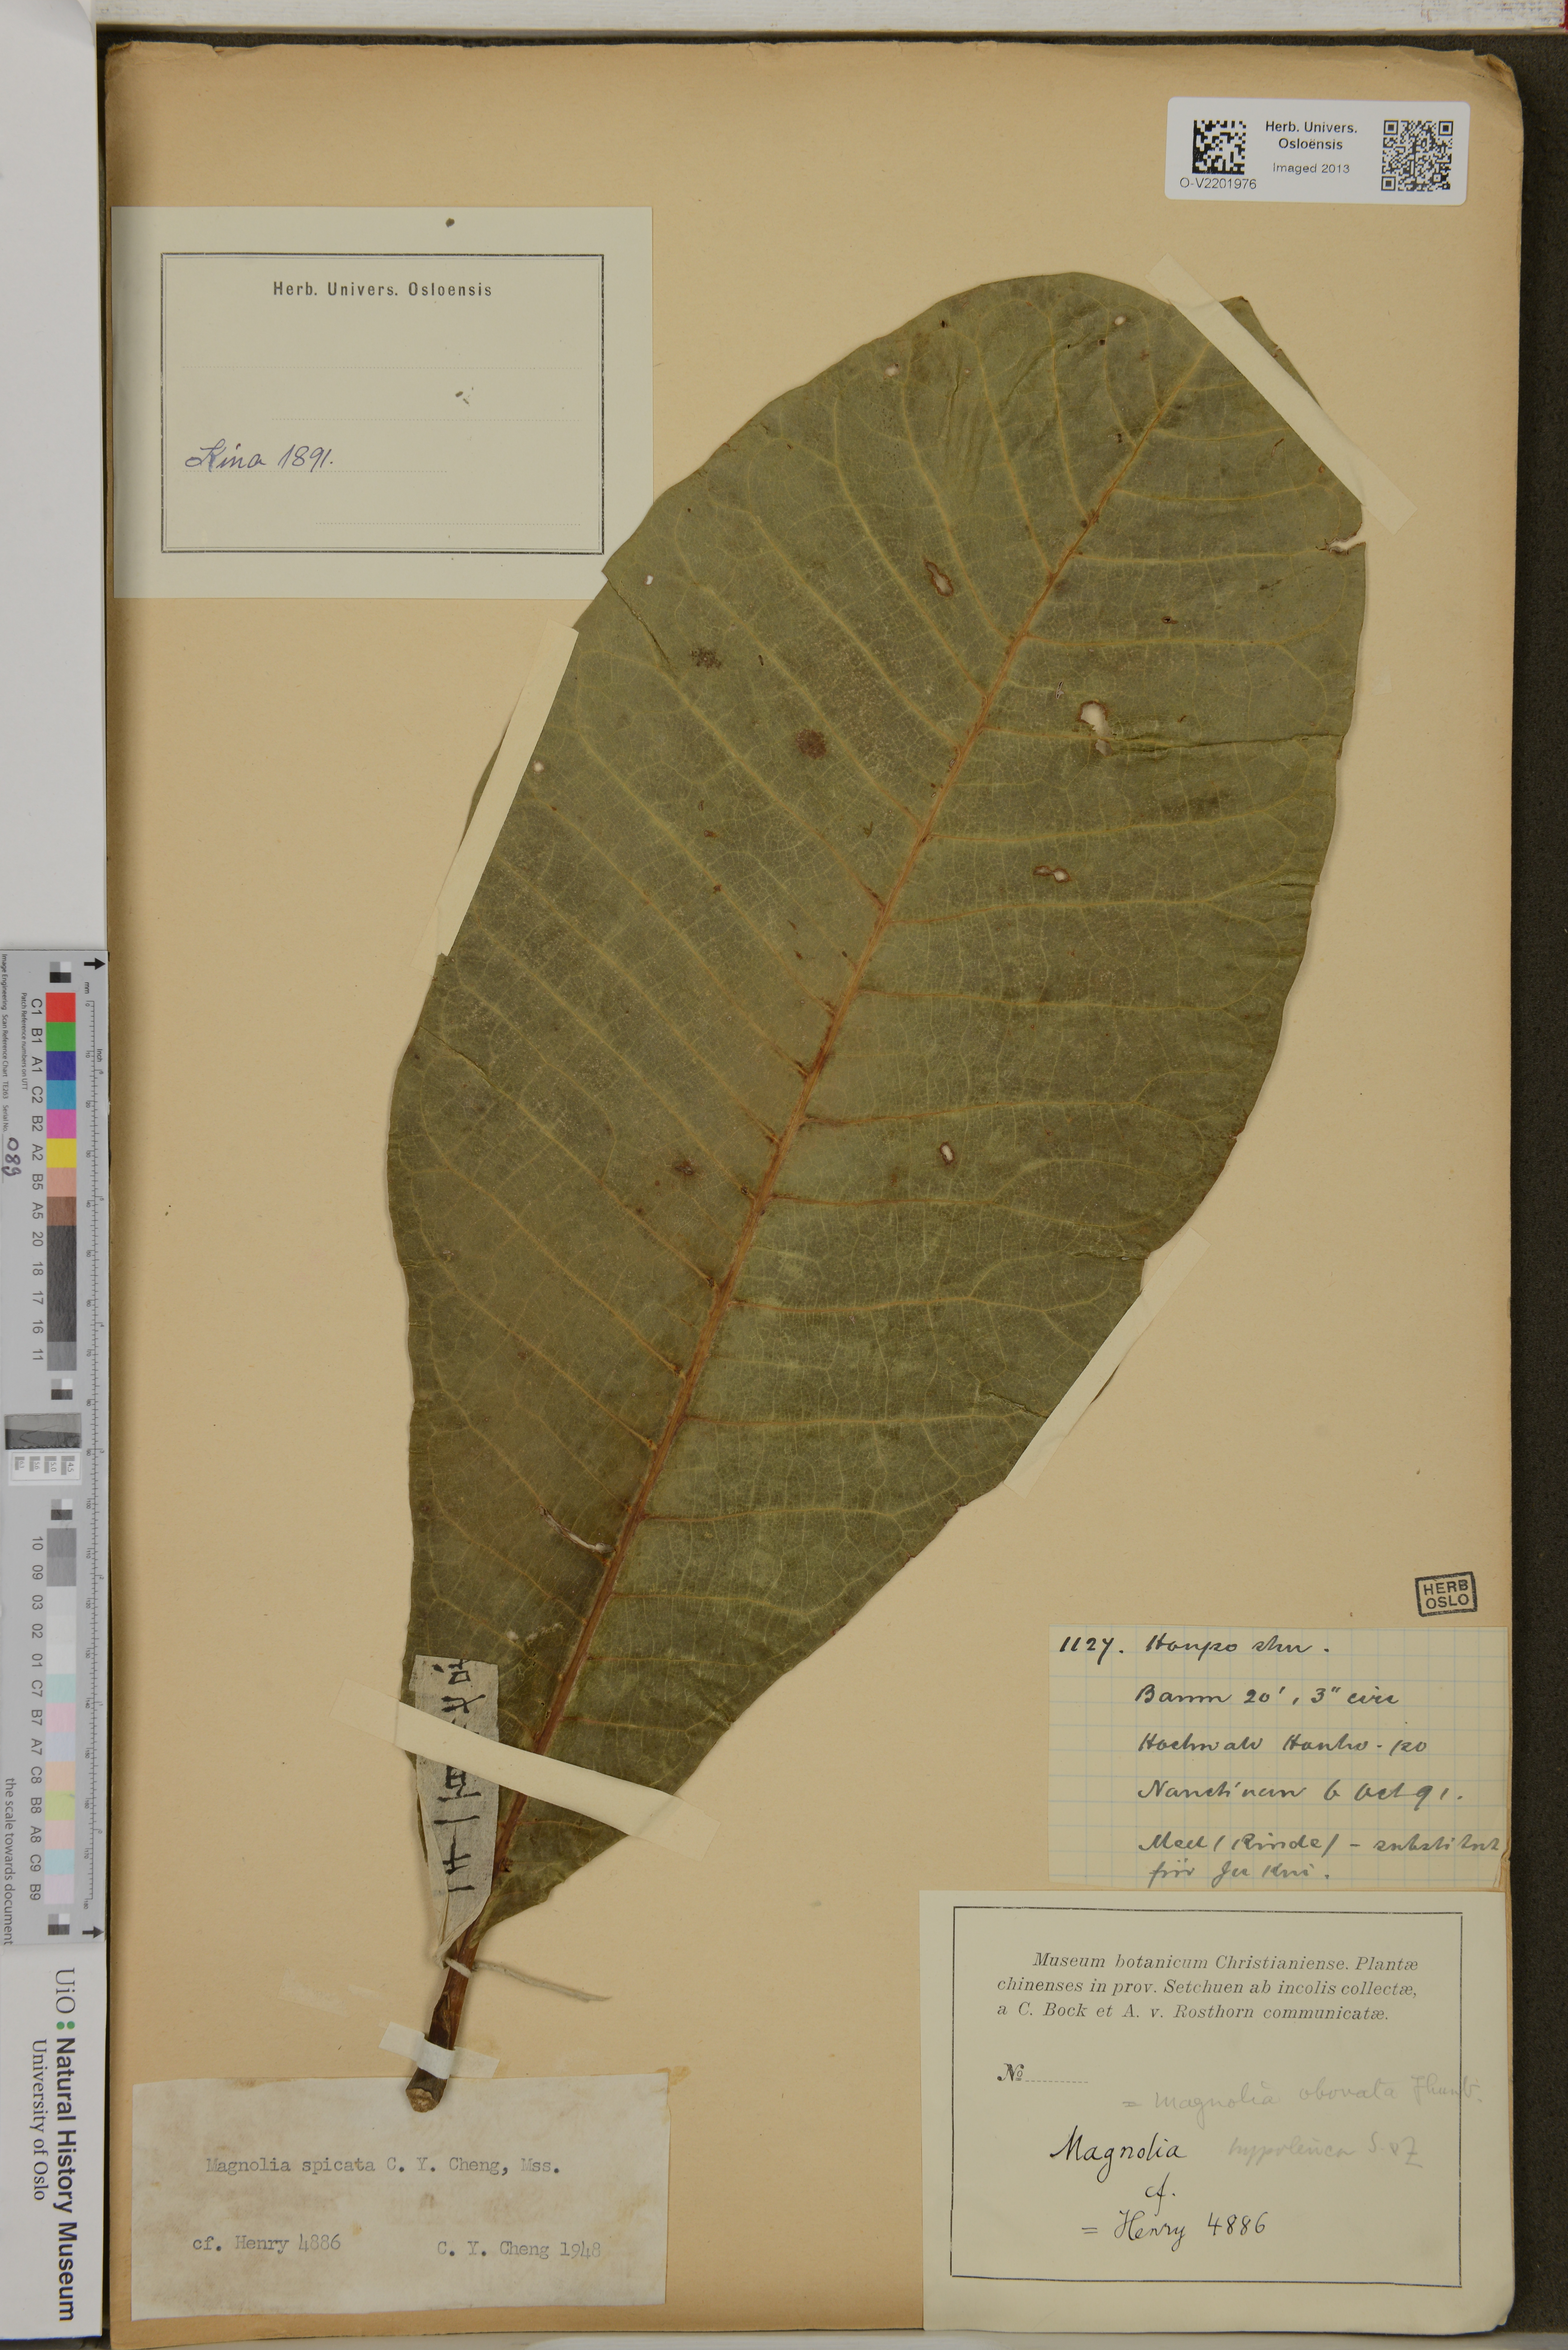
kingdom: Plantae
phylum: Tracheophyta
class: Magnoliopsida
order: Magnoliales
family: Magnoliaceae
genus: Magnolia
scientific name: Magnolia obovata
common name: Japanese whitebark magnolia
